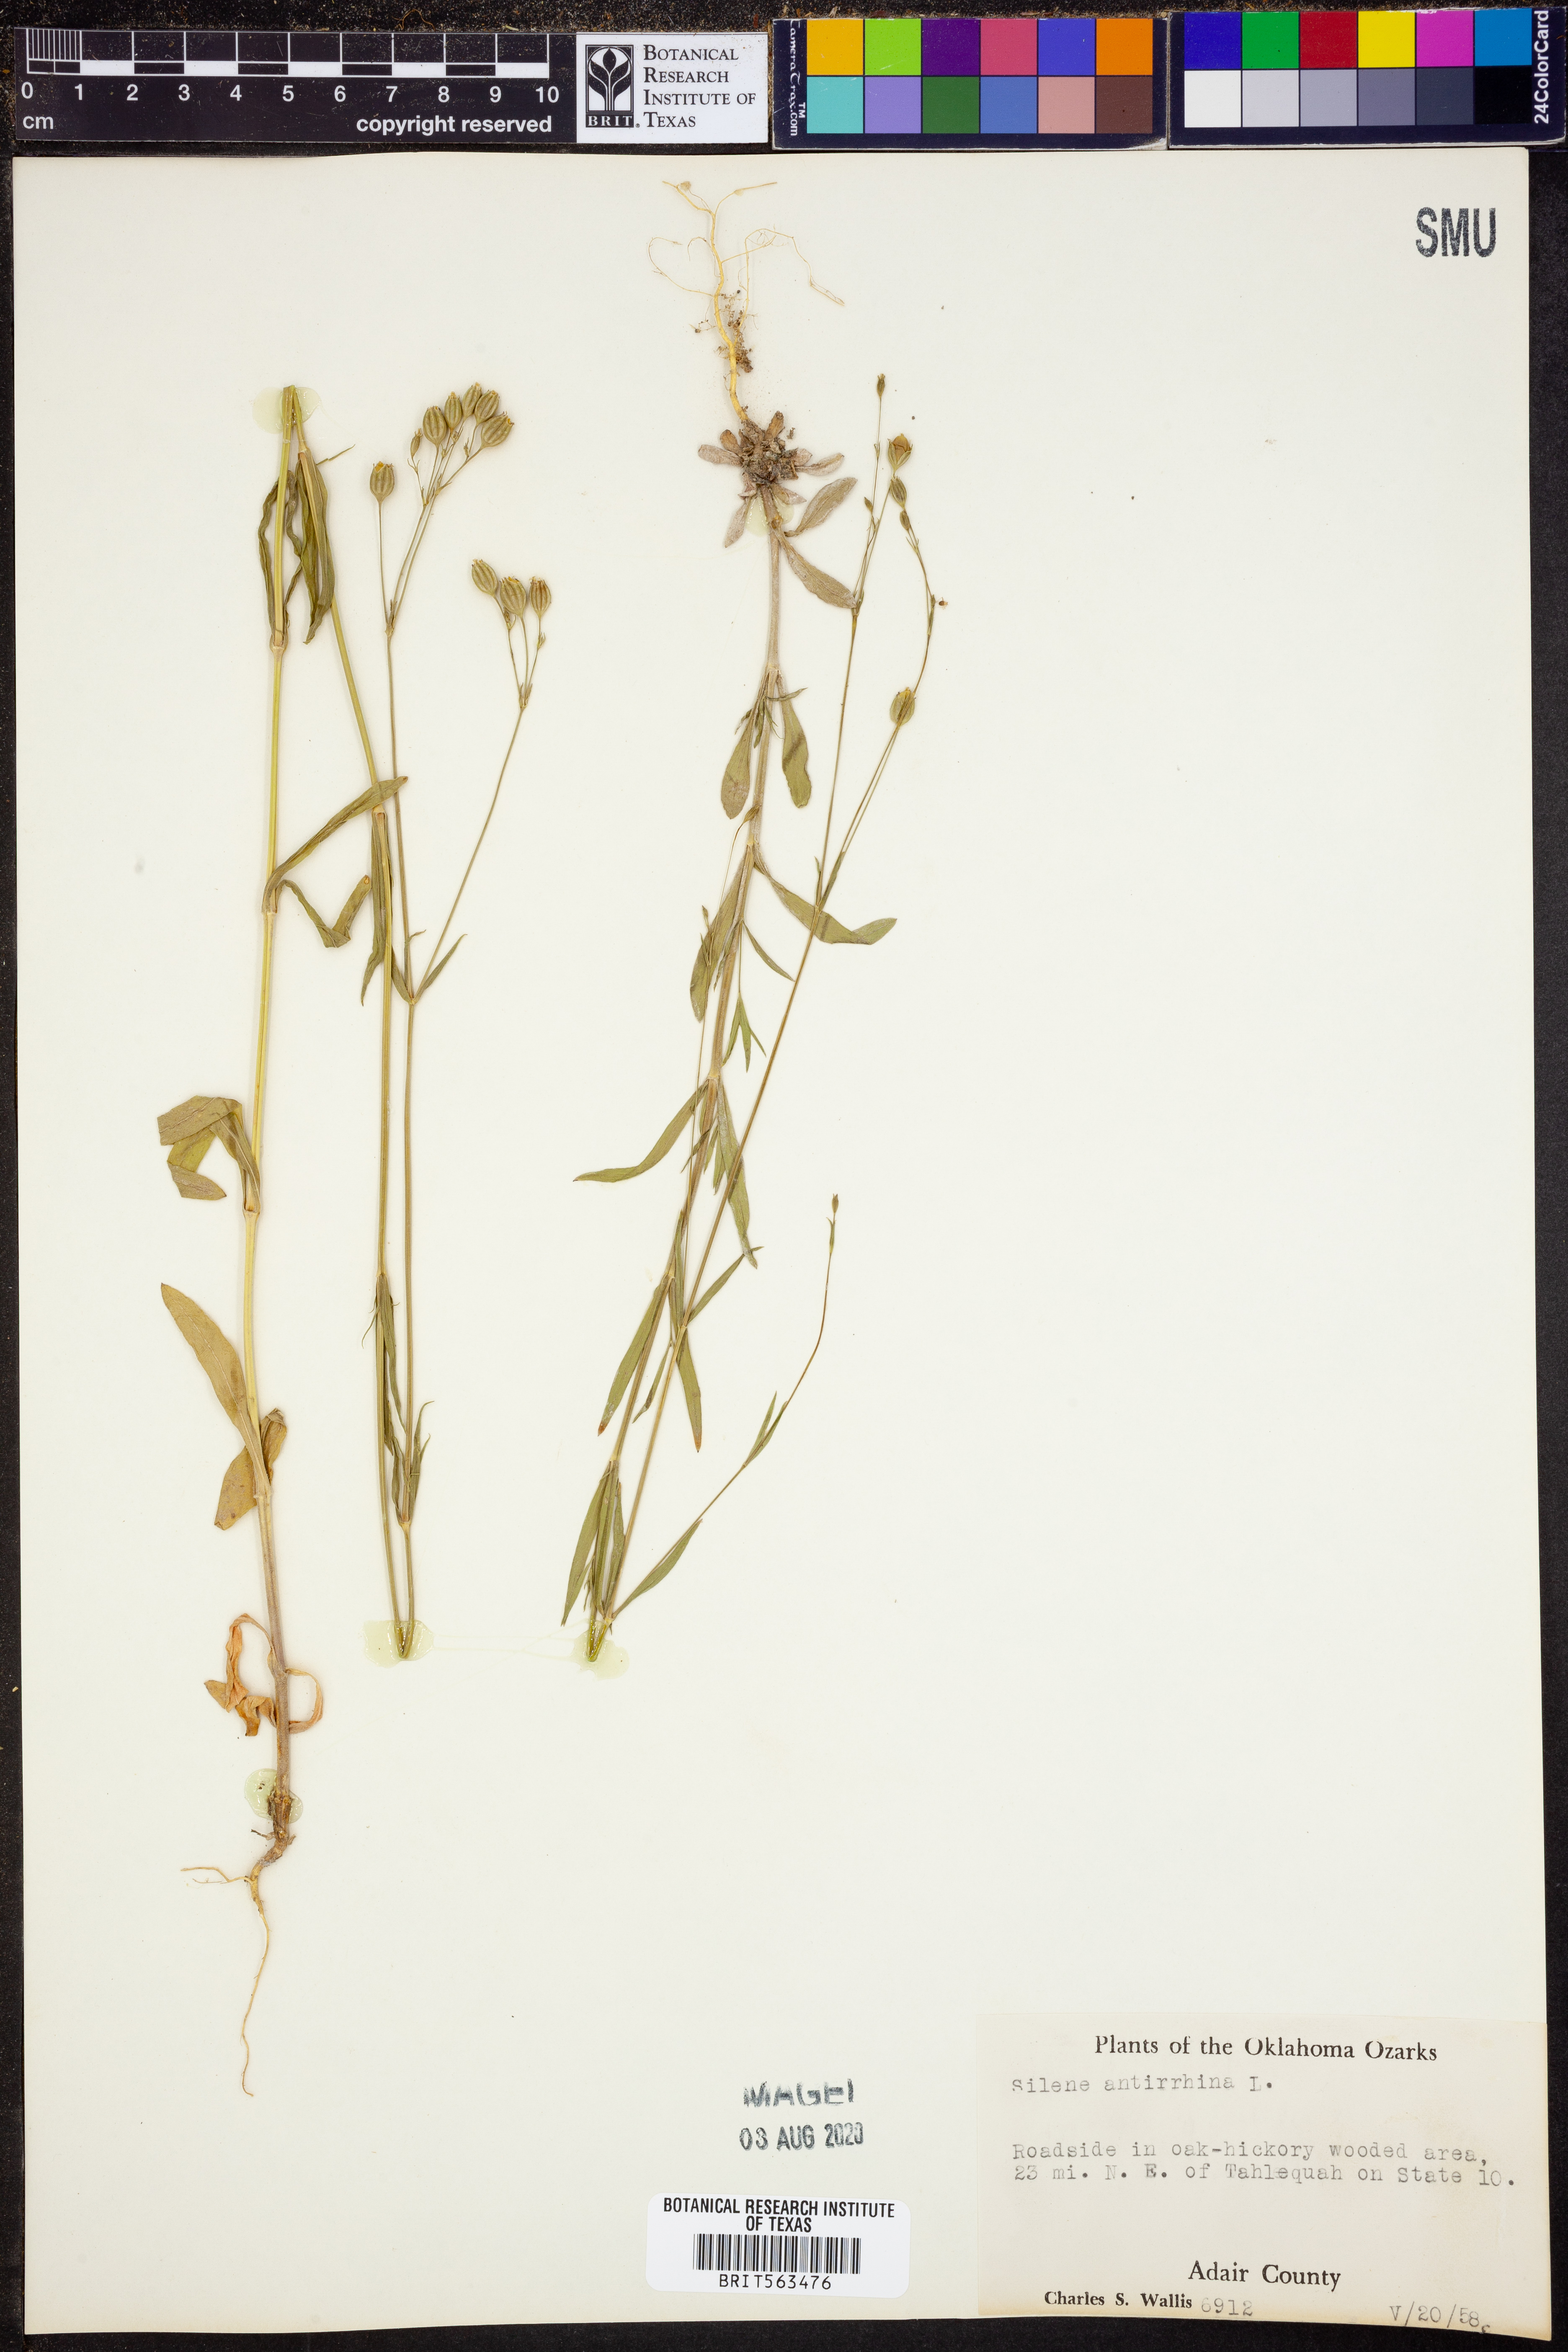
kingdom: Plantae
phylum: Tracheophyta
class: Magnoliopsida
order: Caryophyllales
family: Caryophyllaceae
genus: Silene
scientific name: Silene antirrhina
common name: Sleepy catchfly
